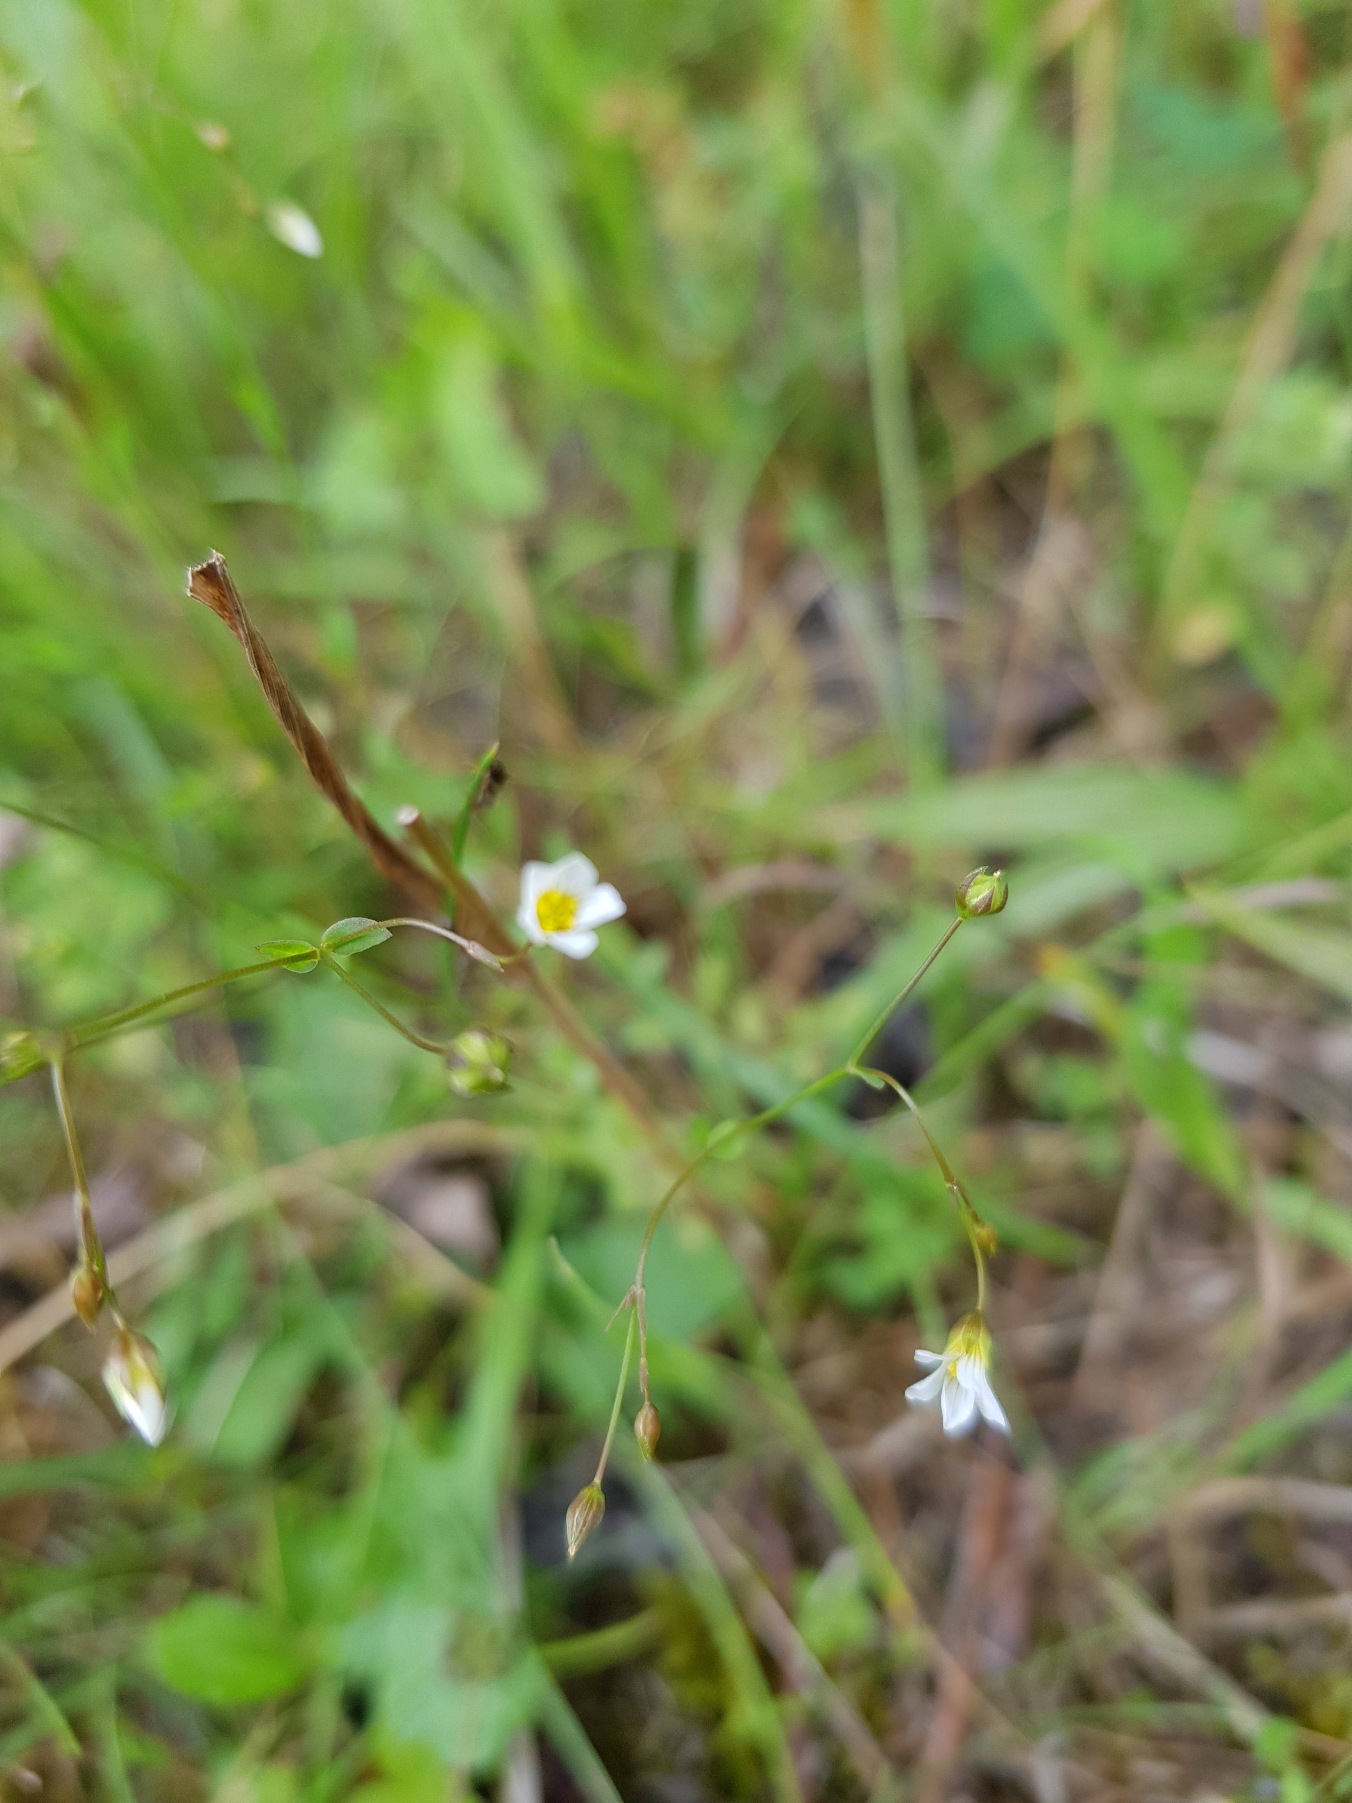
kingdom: Plantae
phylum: Tracheophyta
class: Magnoliopsida
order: Malpighiales
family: Linaceae
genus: Linum
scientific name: Linum catharticum
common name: Vild hør
